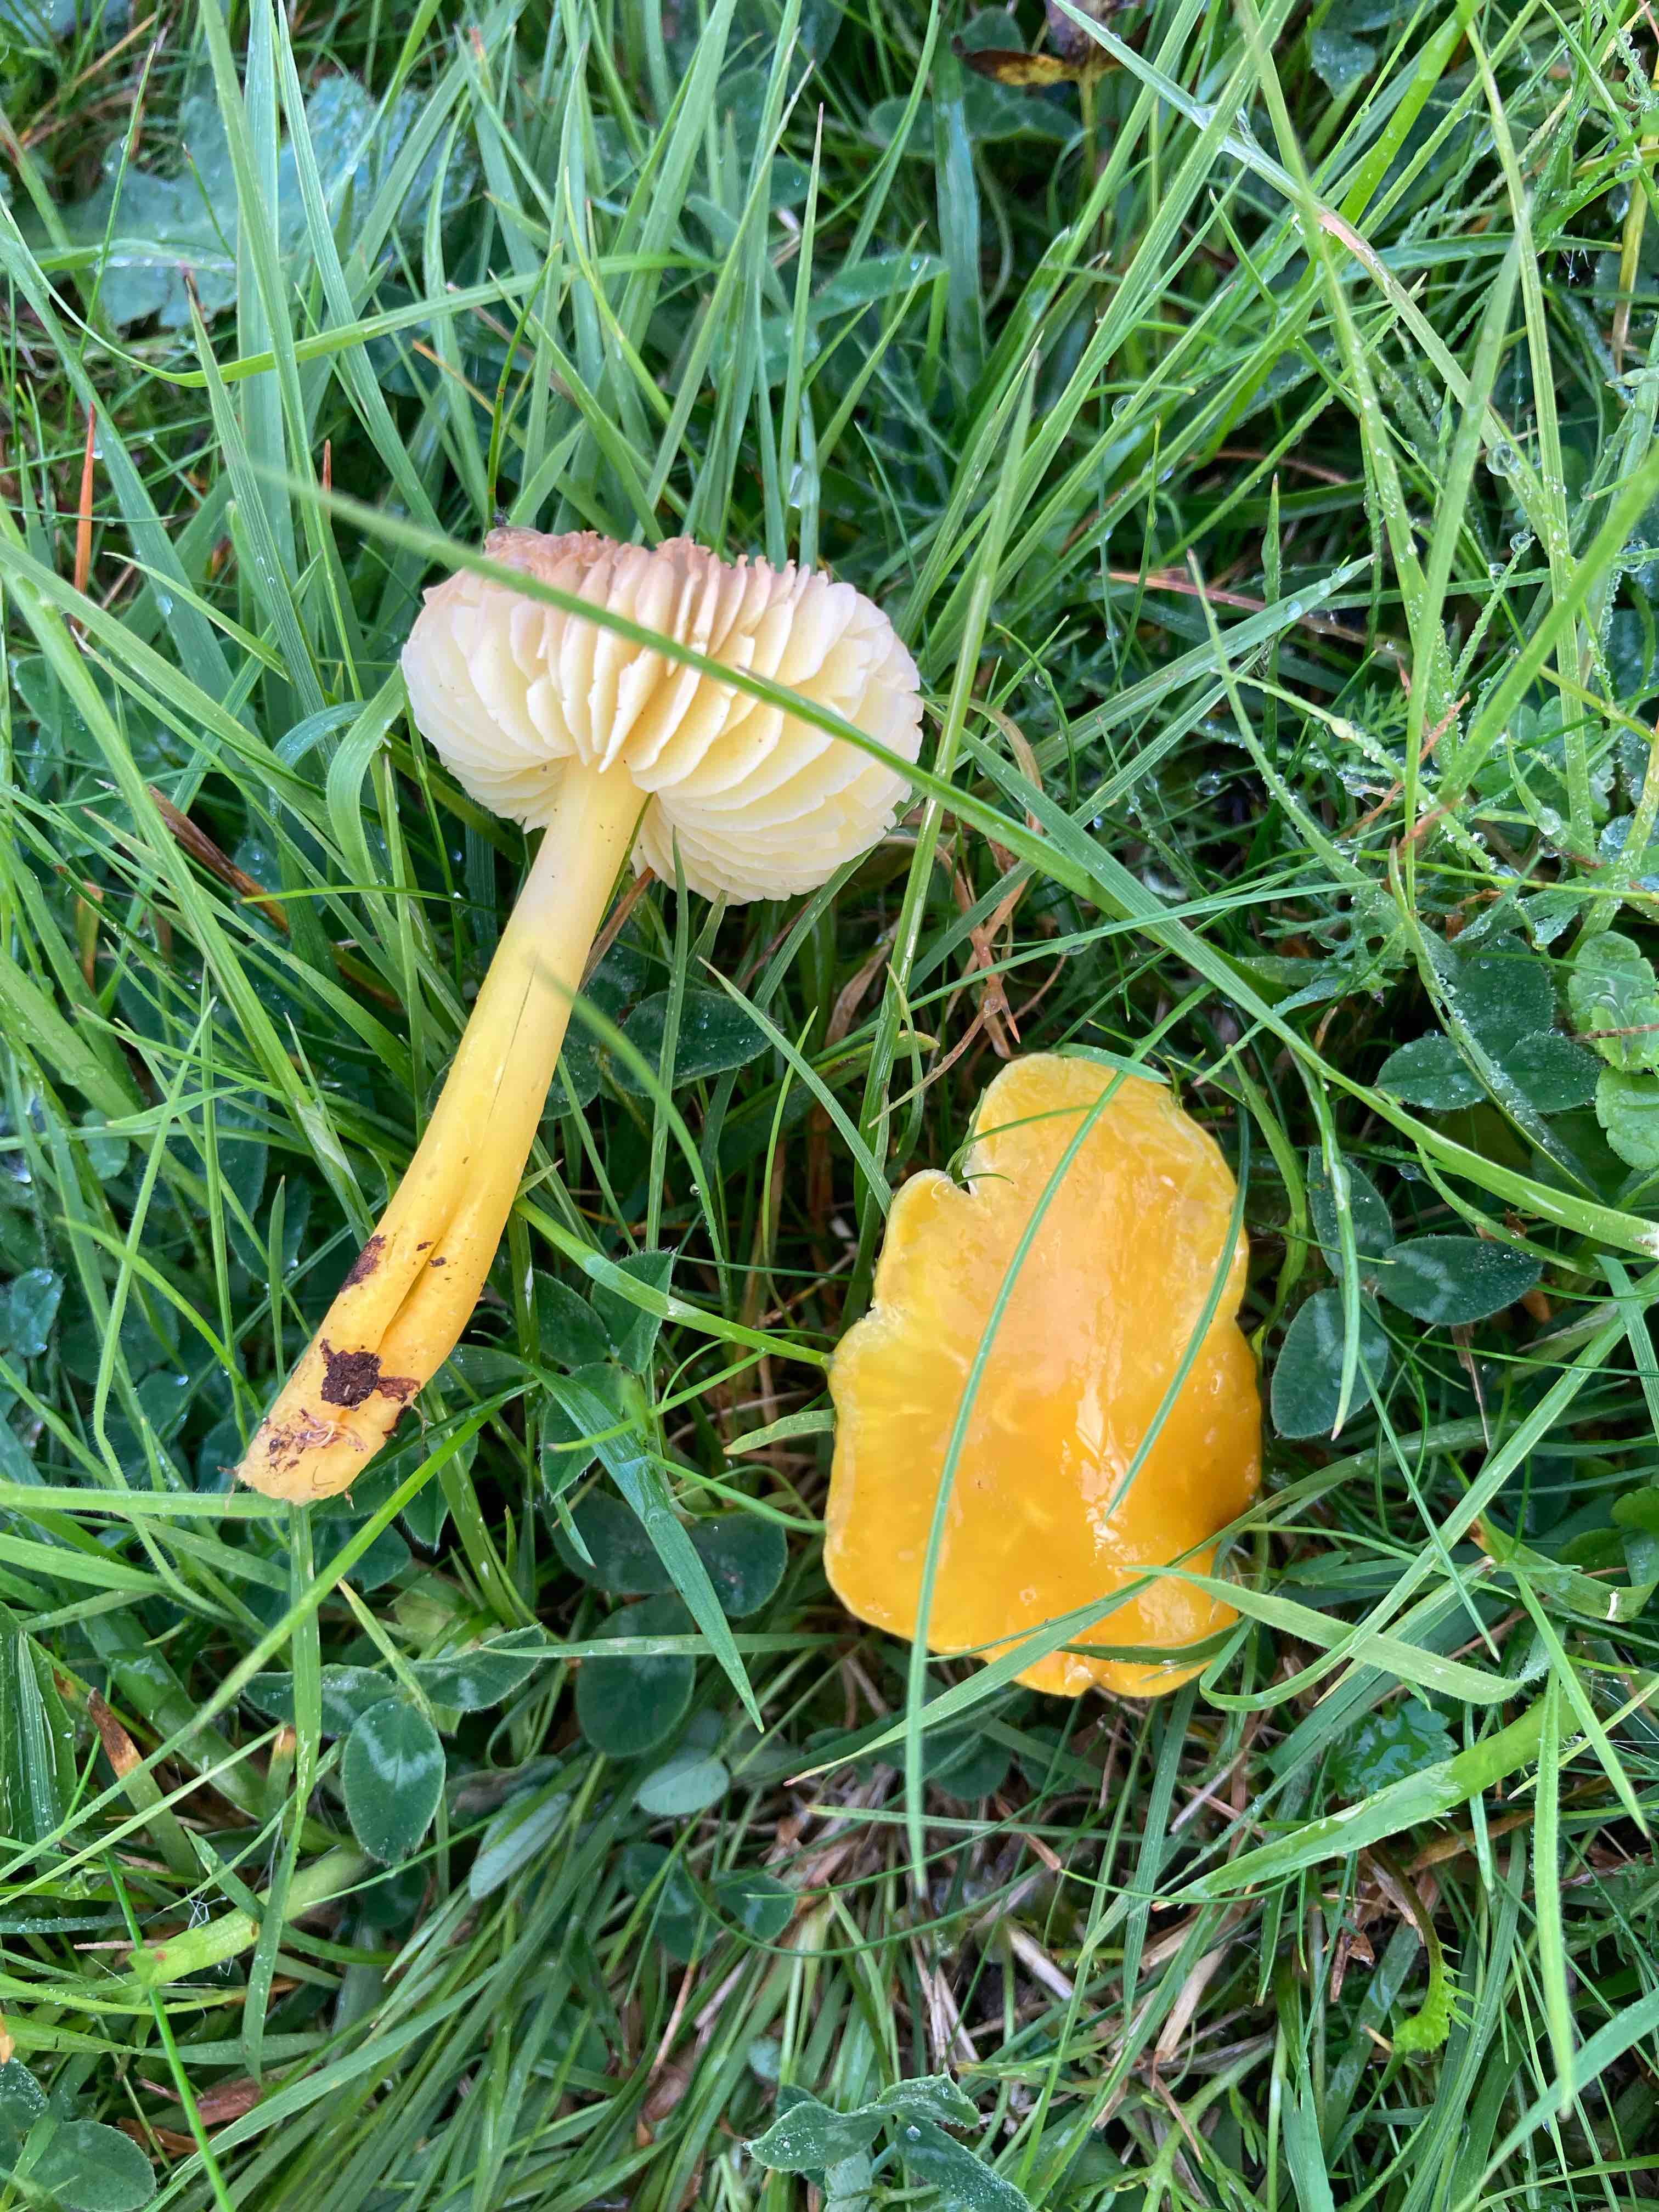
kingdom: Fungi
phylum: Basidiomycota
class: Agaricomycetes
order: Agaricales
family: Hygrophoraceae
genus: Hygrocybe
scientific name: Hygrocybe chlorophana
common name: gul vokshat
